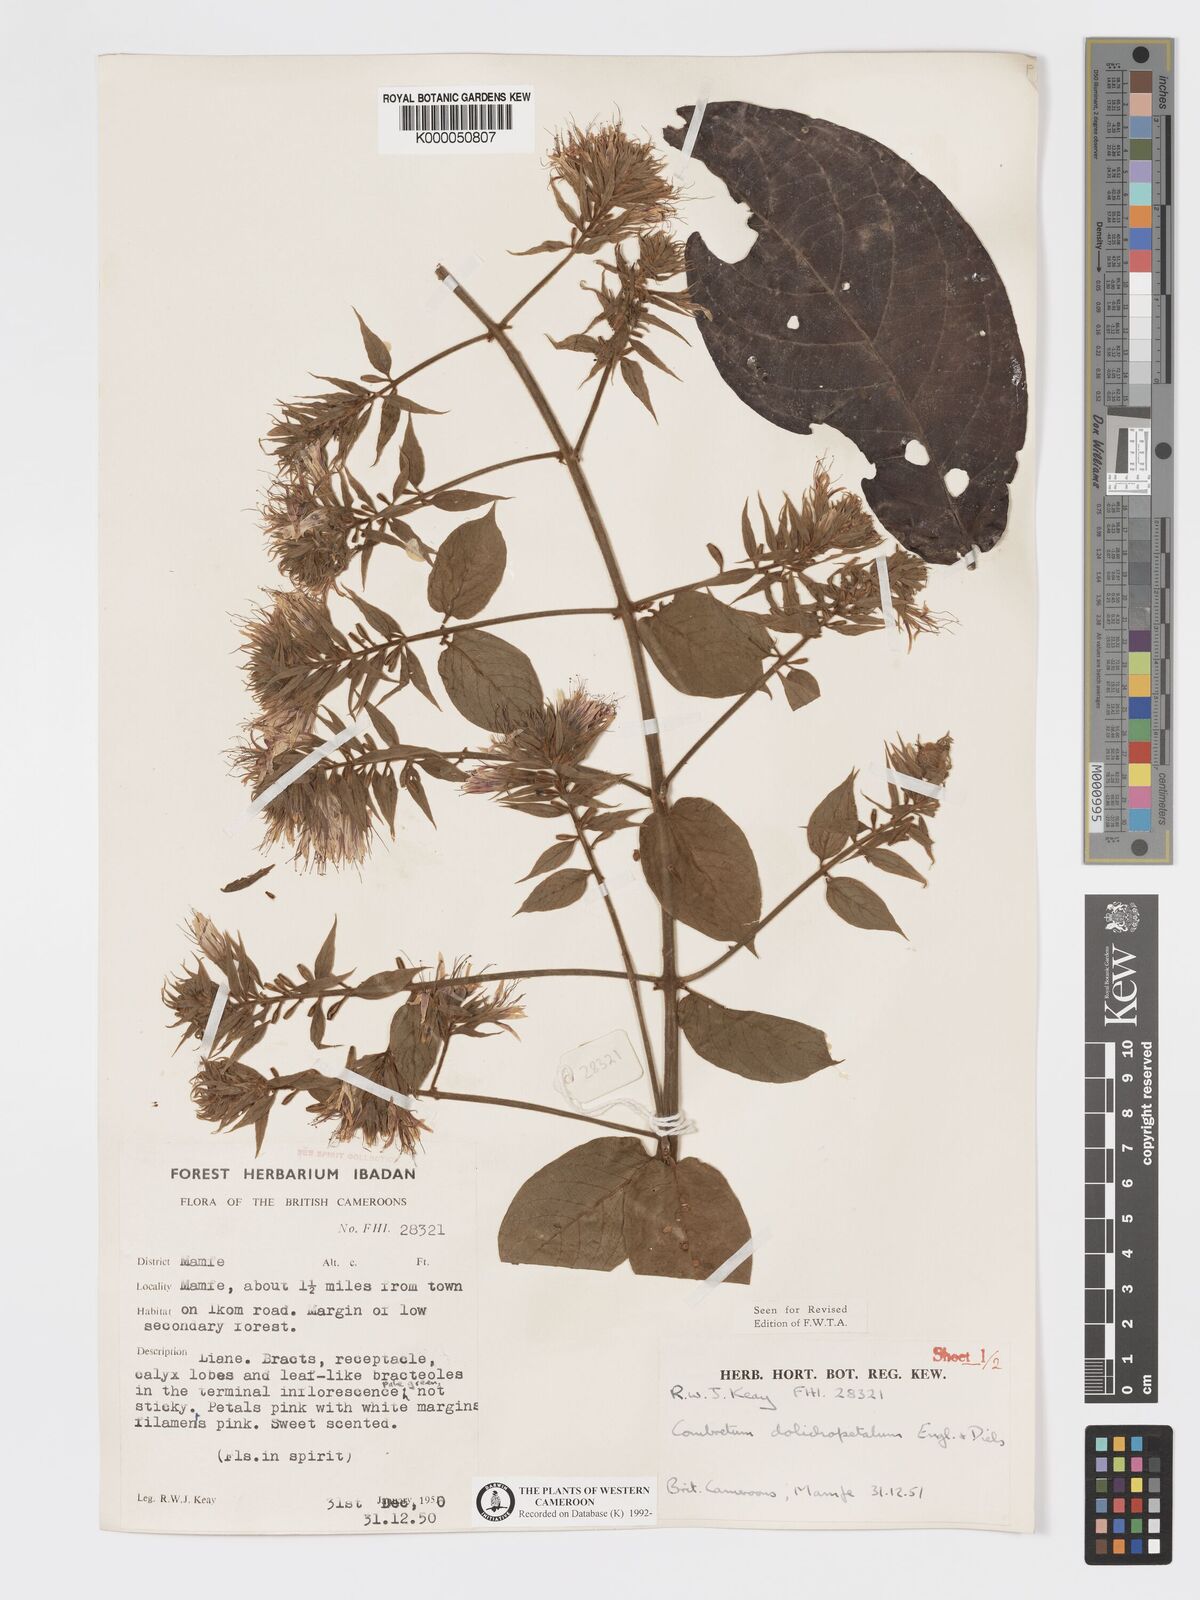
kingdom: Plantae
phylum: Tracheophyta
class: Magnoliopsida
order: Myrtales
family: Combretaceae
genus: Combretum
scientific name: Combretum comosum
